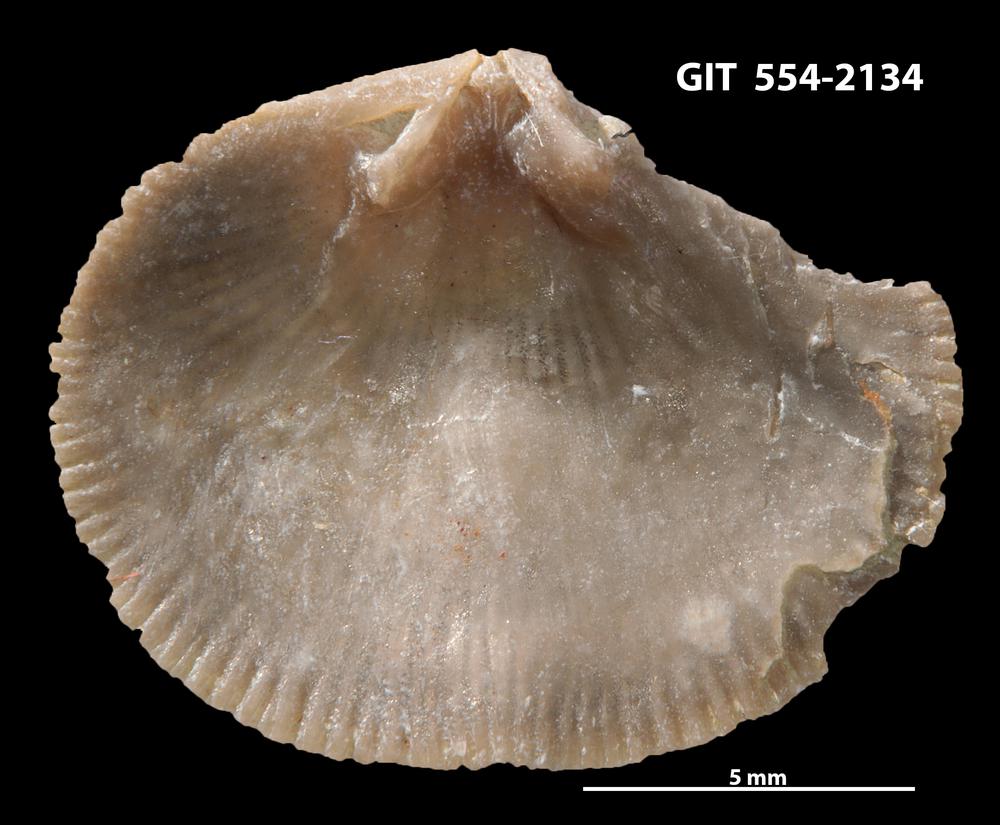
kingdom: Animalia
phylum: Brachiopoda
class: Rhynchonellata
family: Dalmanellidae
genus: Levenea
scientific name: Levenea Orthis canaliculata
